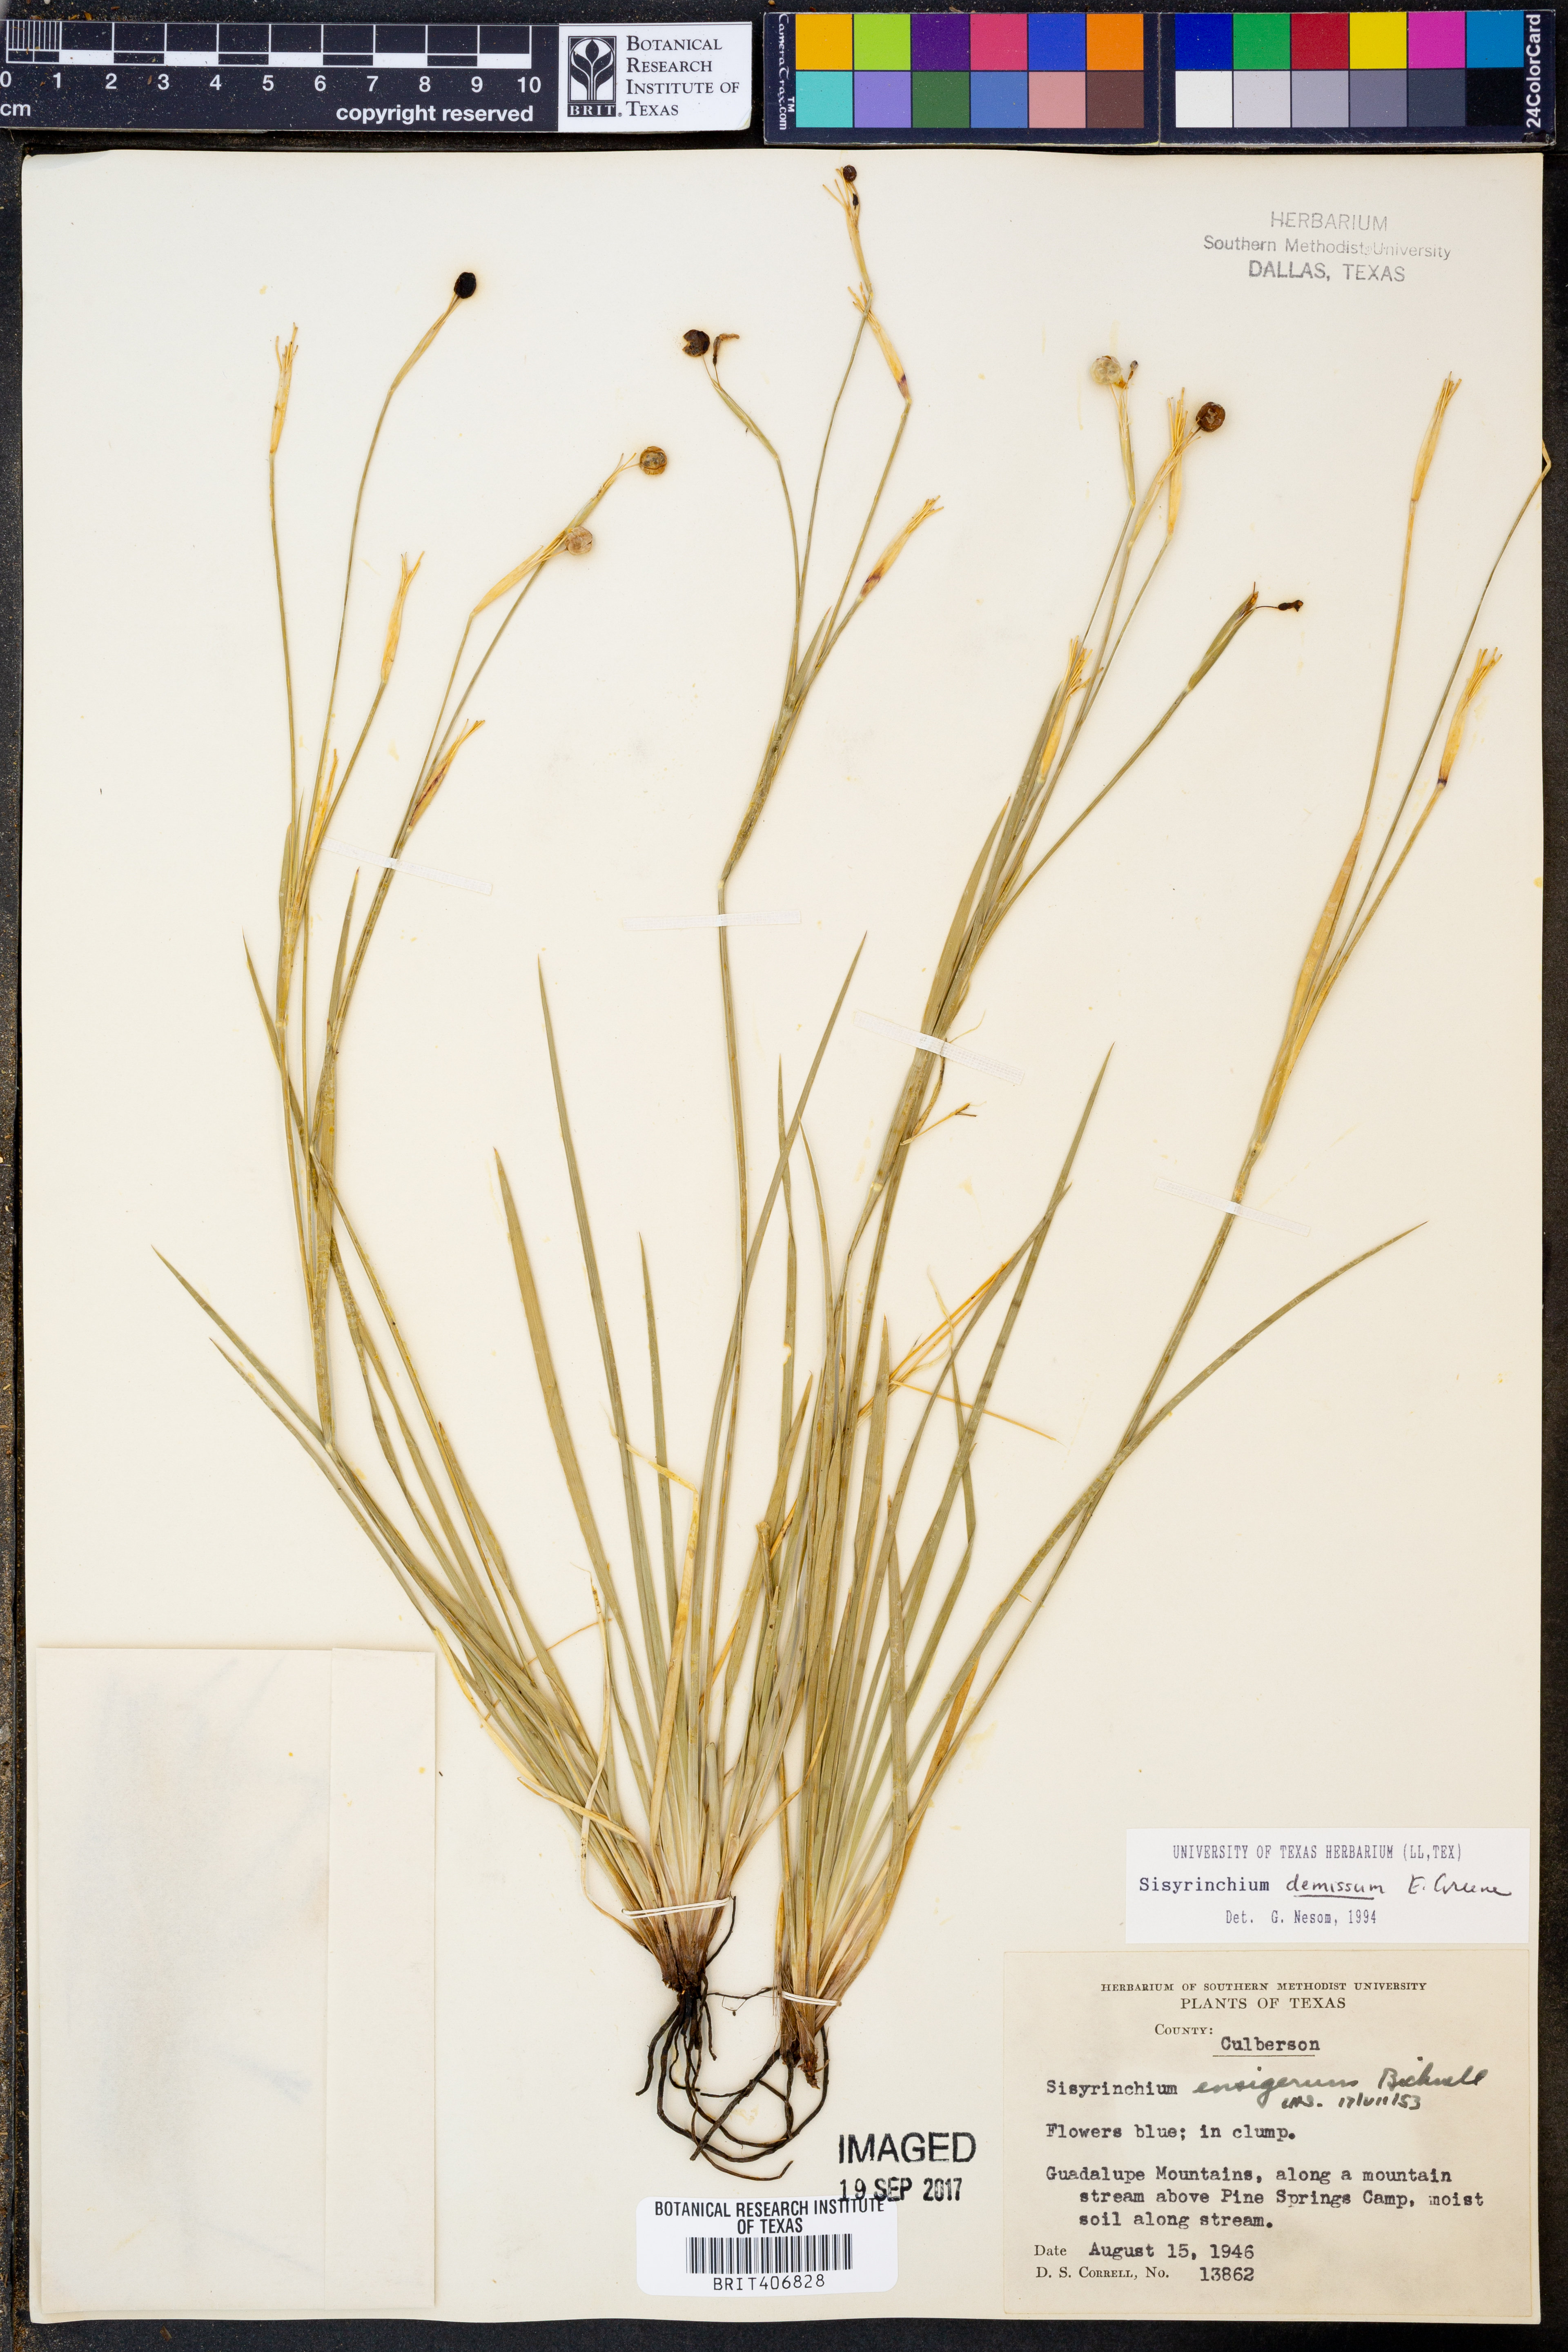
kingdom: Plantae
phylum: Tracheophyta
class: Liliopsida
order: Asparagales
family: Iridaceae
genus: Sisyrinchium
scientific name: Sisyrinchium demissum
